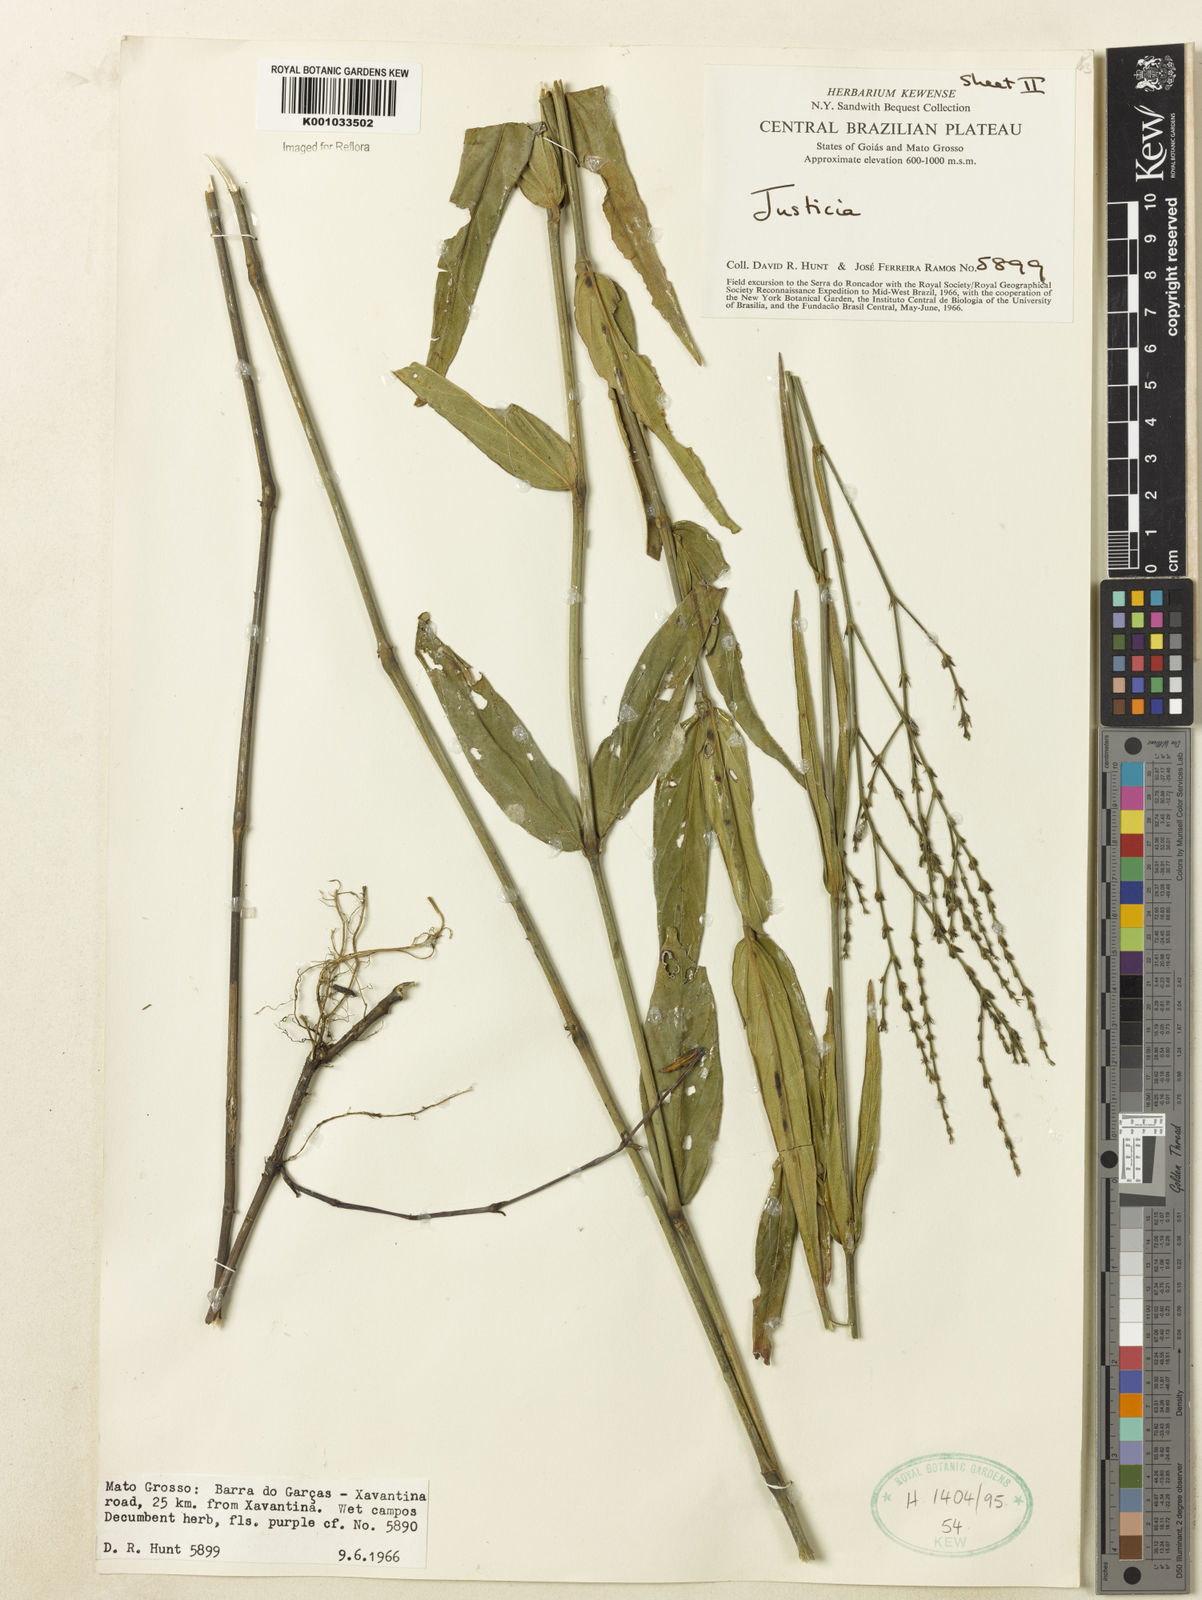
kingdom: Plantae
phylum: Tracheophyta
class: Magnoliopsida
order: Lamiales
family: Acanthaceae
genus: Dianthera
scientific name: Dianthera pectoralis
